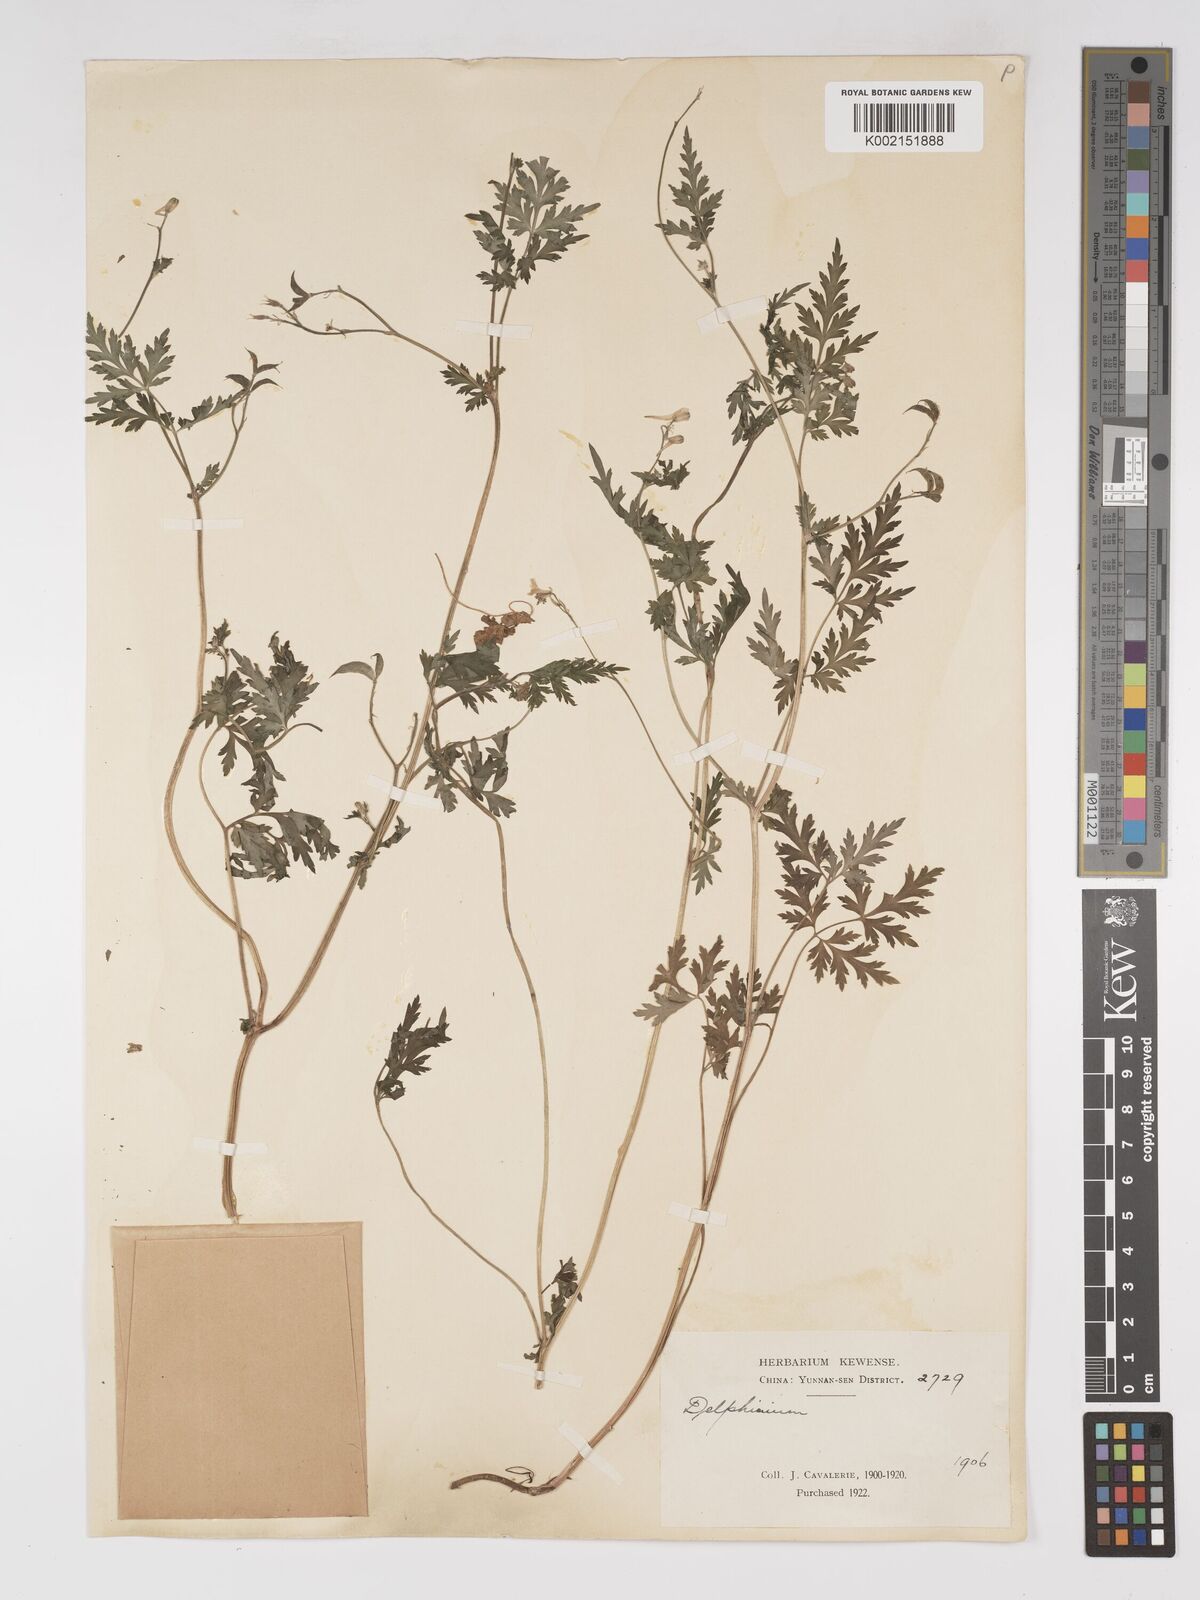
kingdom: Plantae
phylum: Tracheophyta
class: Magnoliopsida
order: Ranunculales
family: Ranunculaceae
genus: Delphinium
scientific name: Delphinium anthriscifolium
